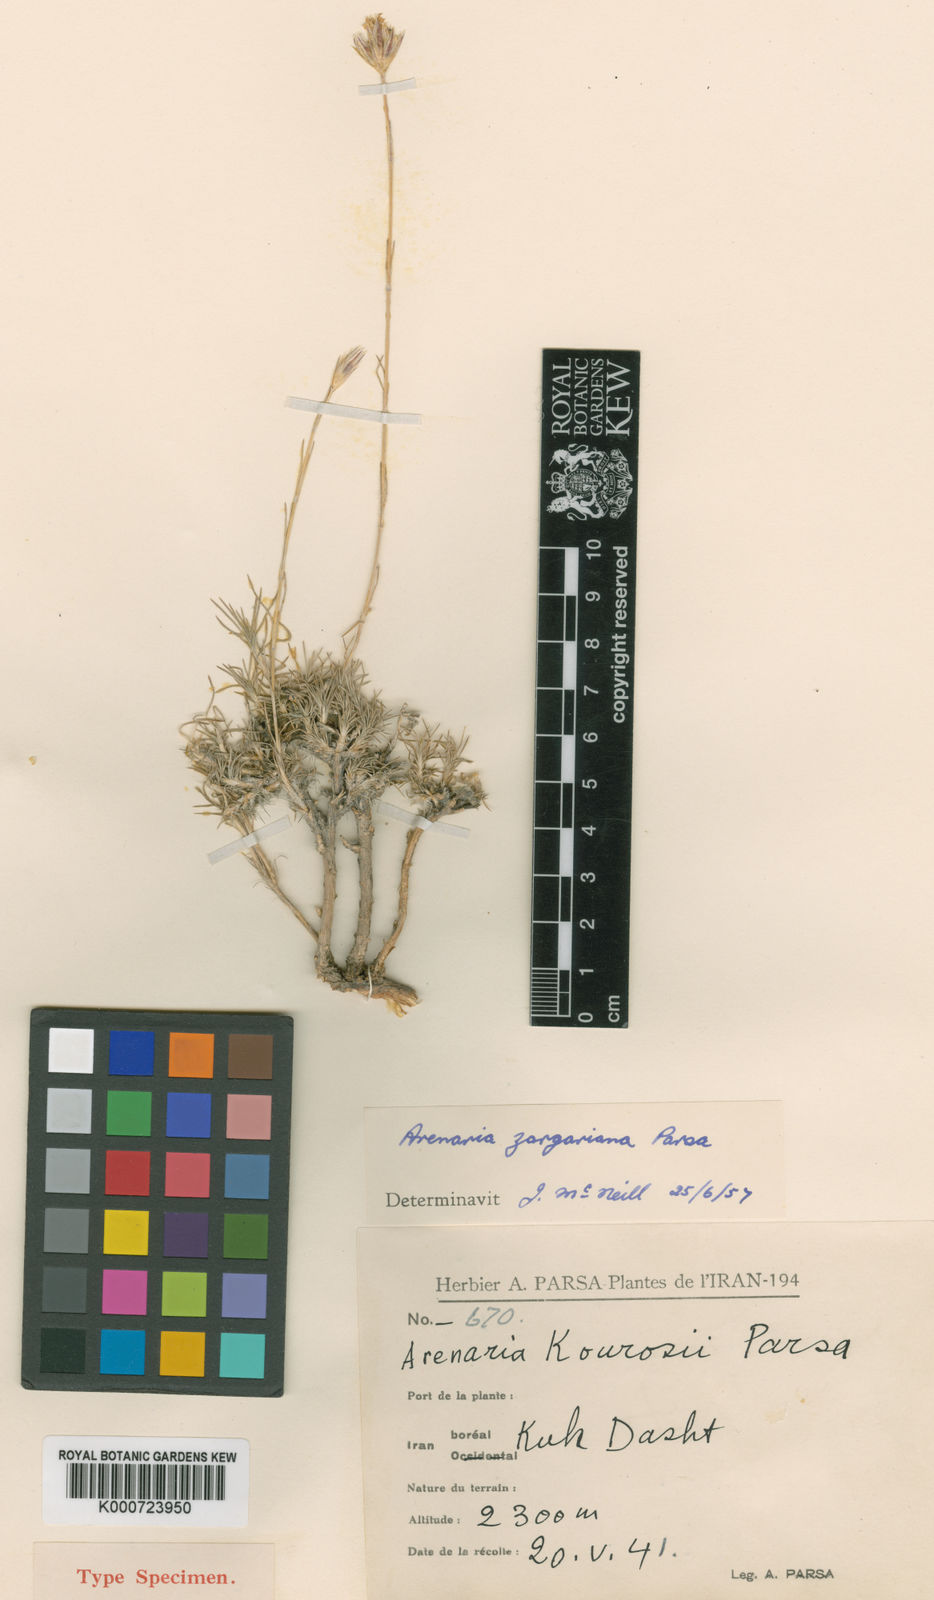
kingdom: Plantae
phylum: Tracheophyta
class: Magnoliopsida
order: Caryophyllales
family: Caryophyllaceae
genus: Eremogone
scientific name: Eremogone zargariana
